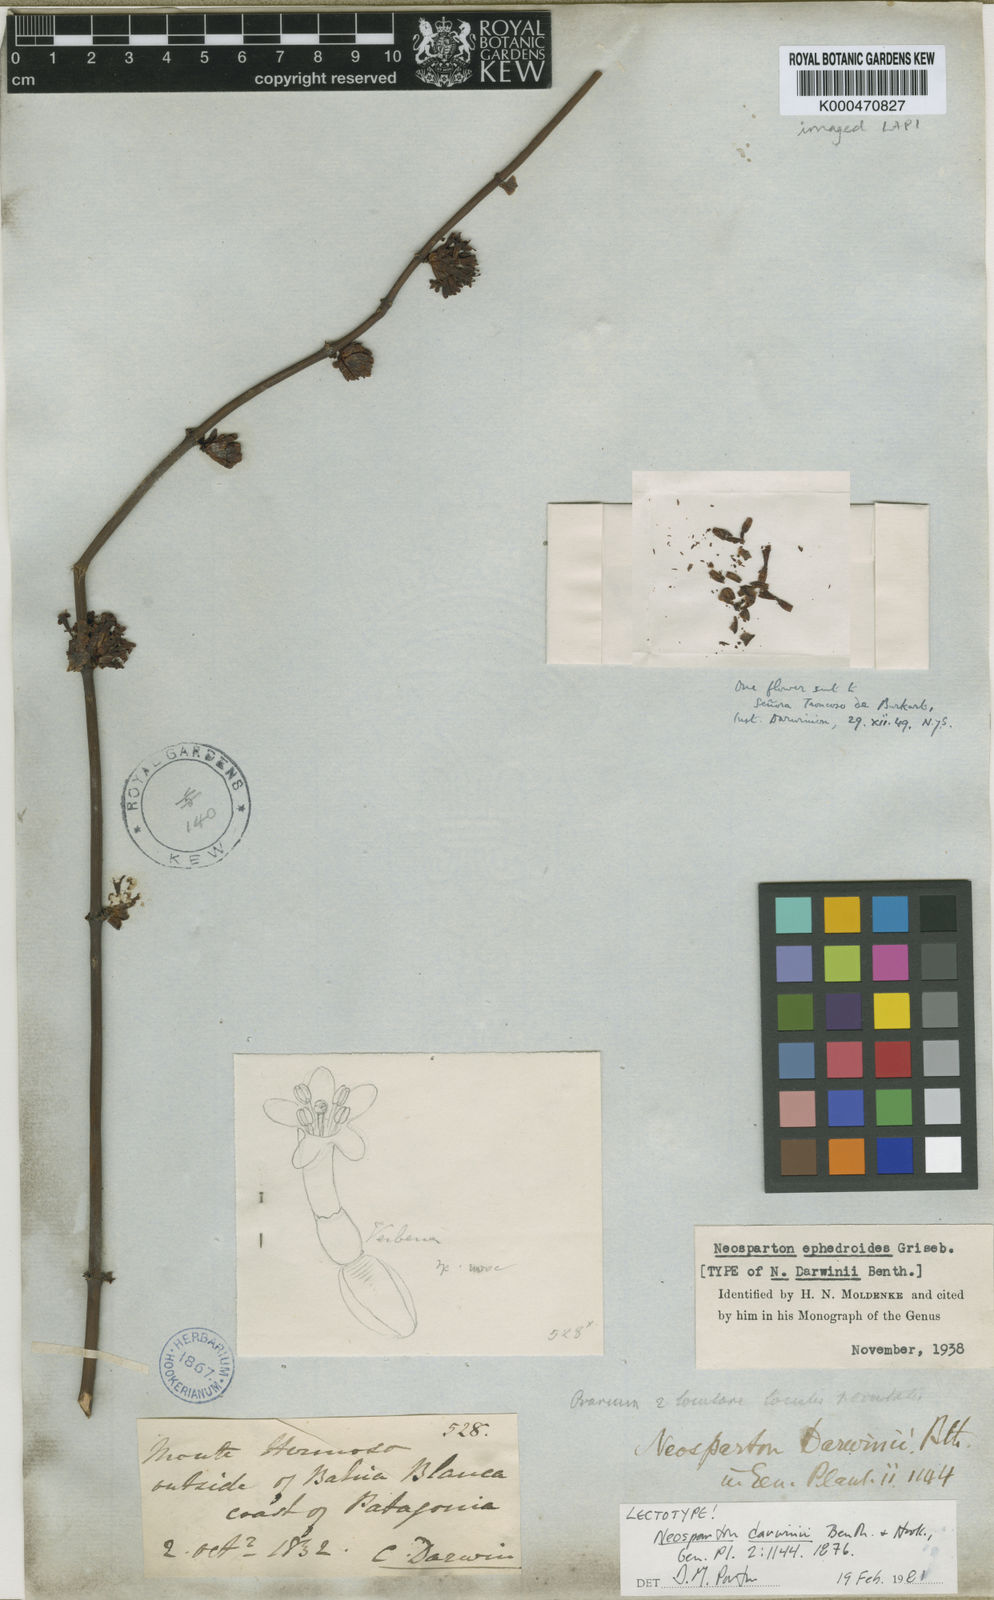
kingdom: Plantae
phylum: Tracheophyta
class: Magnoliopsida
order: Lamiales
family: Verbenaceae
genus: Neosparton
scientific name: Neosparton ephedroides
